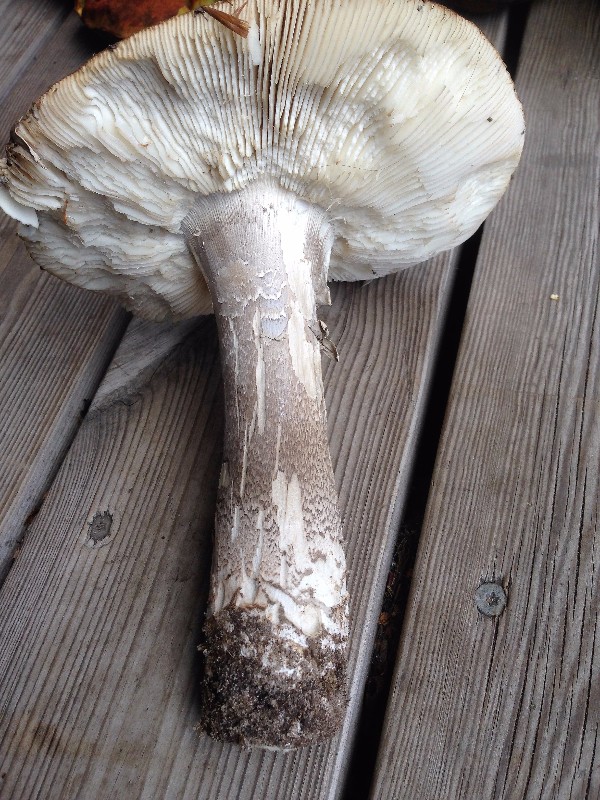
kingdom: Fungi
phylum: Basidiomycota
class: Agaricomycetes
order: Agaricales
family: Amanitaceae
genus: Amanita
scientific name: Amanita
